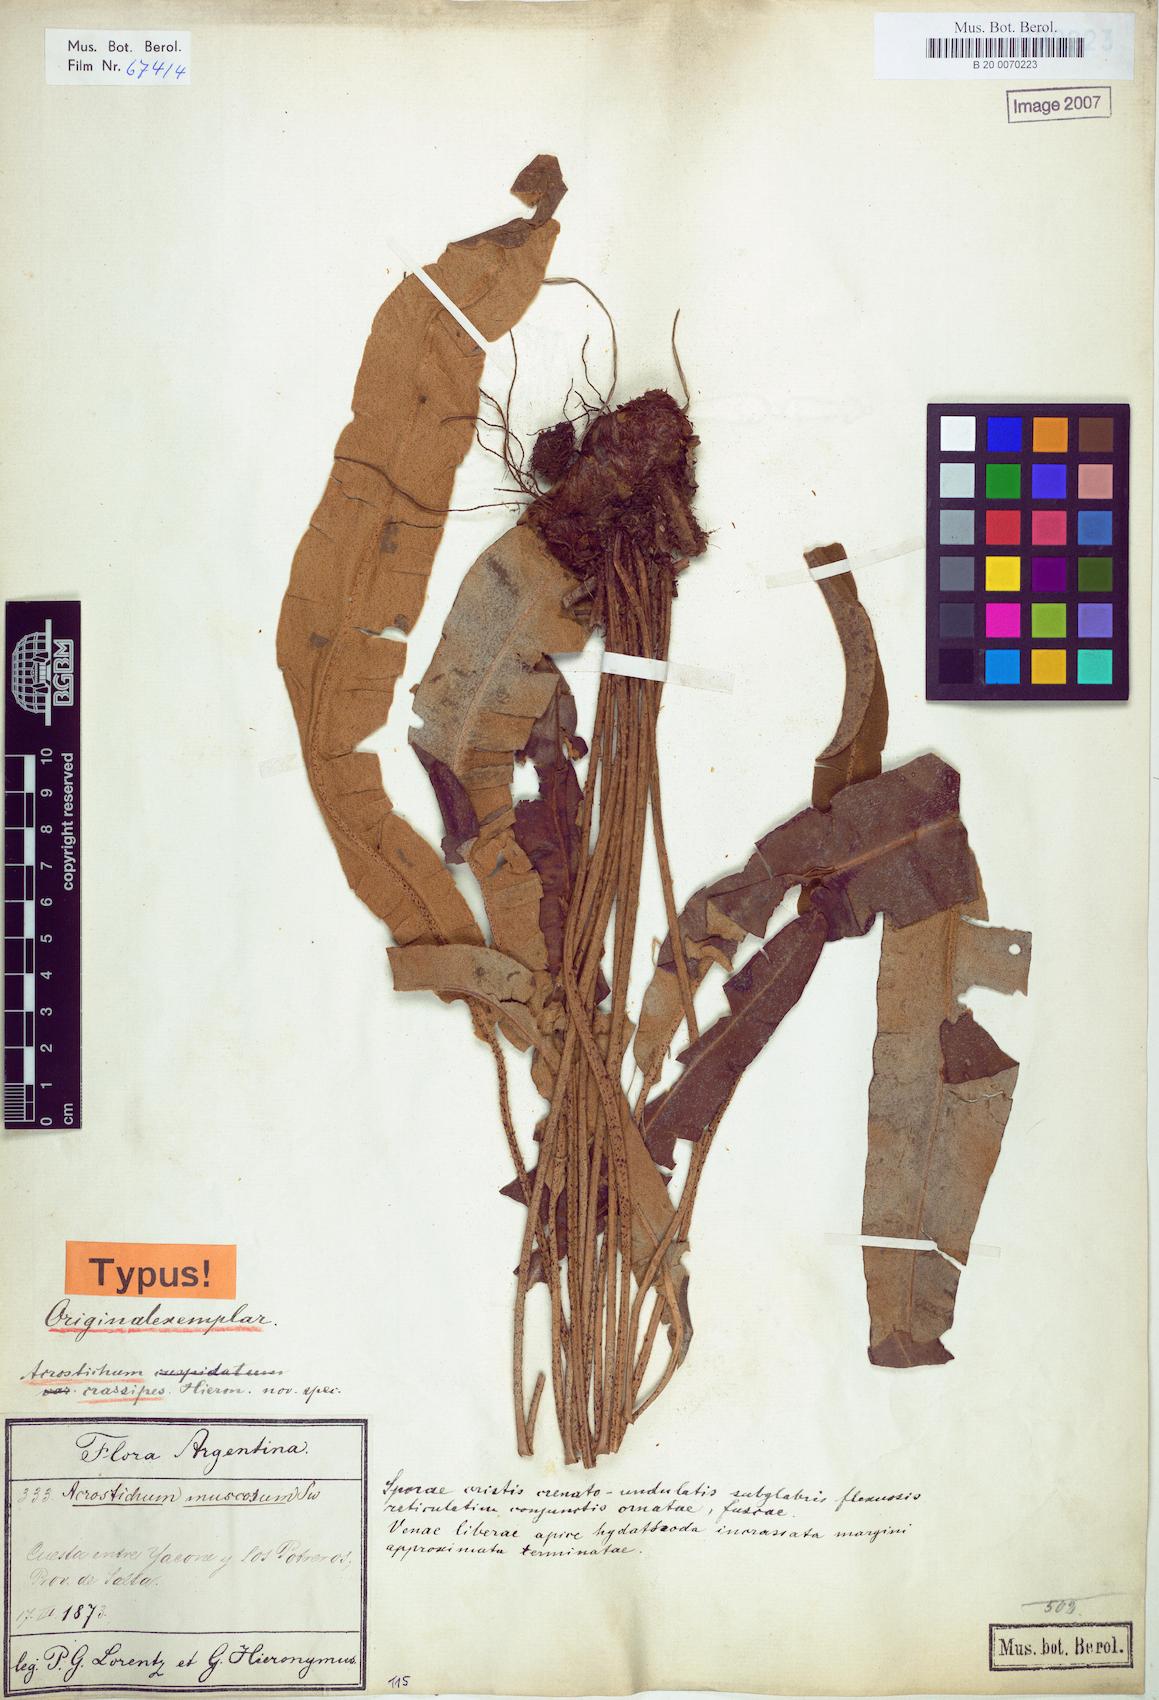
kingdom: Plantae
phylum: Tracheophyta
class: Polypodiopsida
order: Polypodiales
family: Dryopteridaceae
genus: Elaphoglossum
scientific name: Elaphoglossum crassipes
